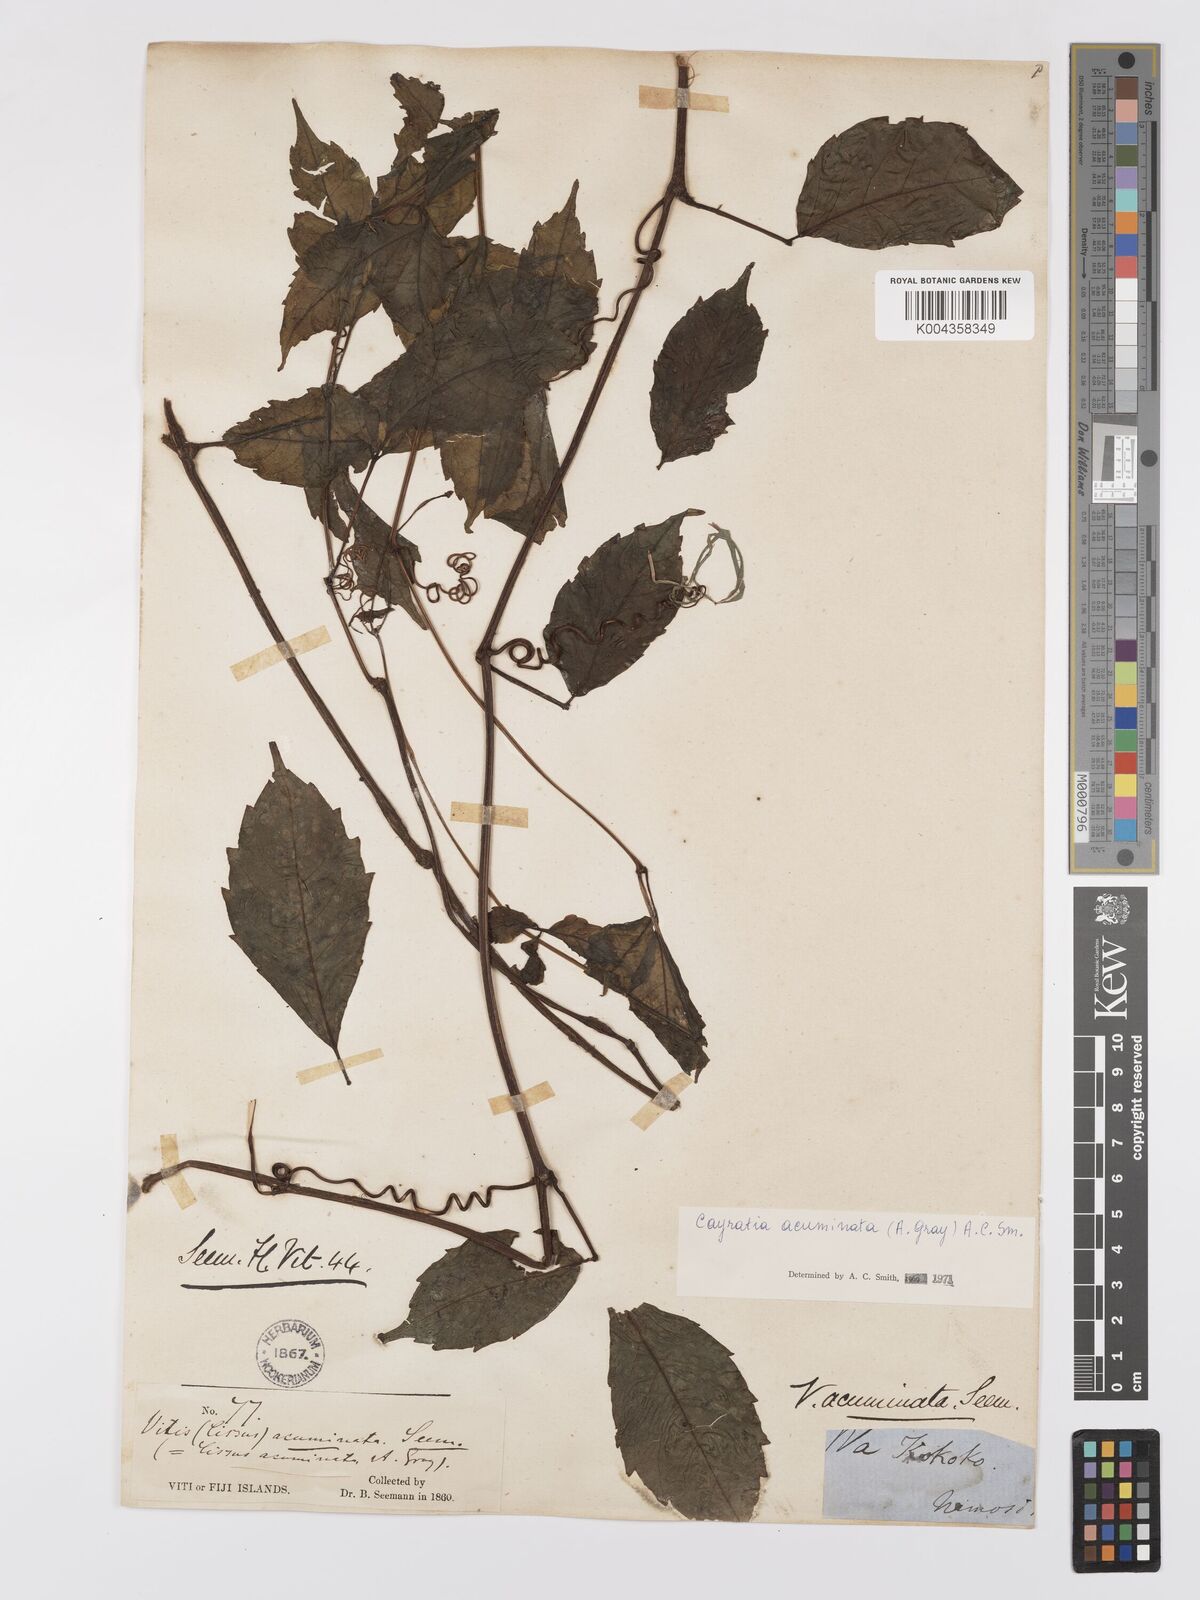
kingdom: Plantae
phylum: Tracheophyta
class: Magnoliopsida
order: Vitales
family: Vitaceae
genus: Cayratia
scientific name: Cayratia acuminata
